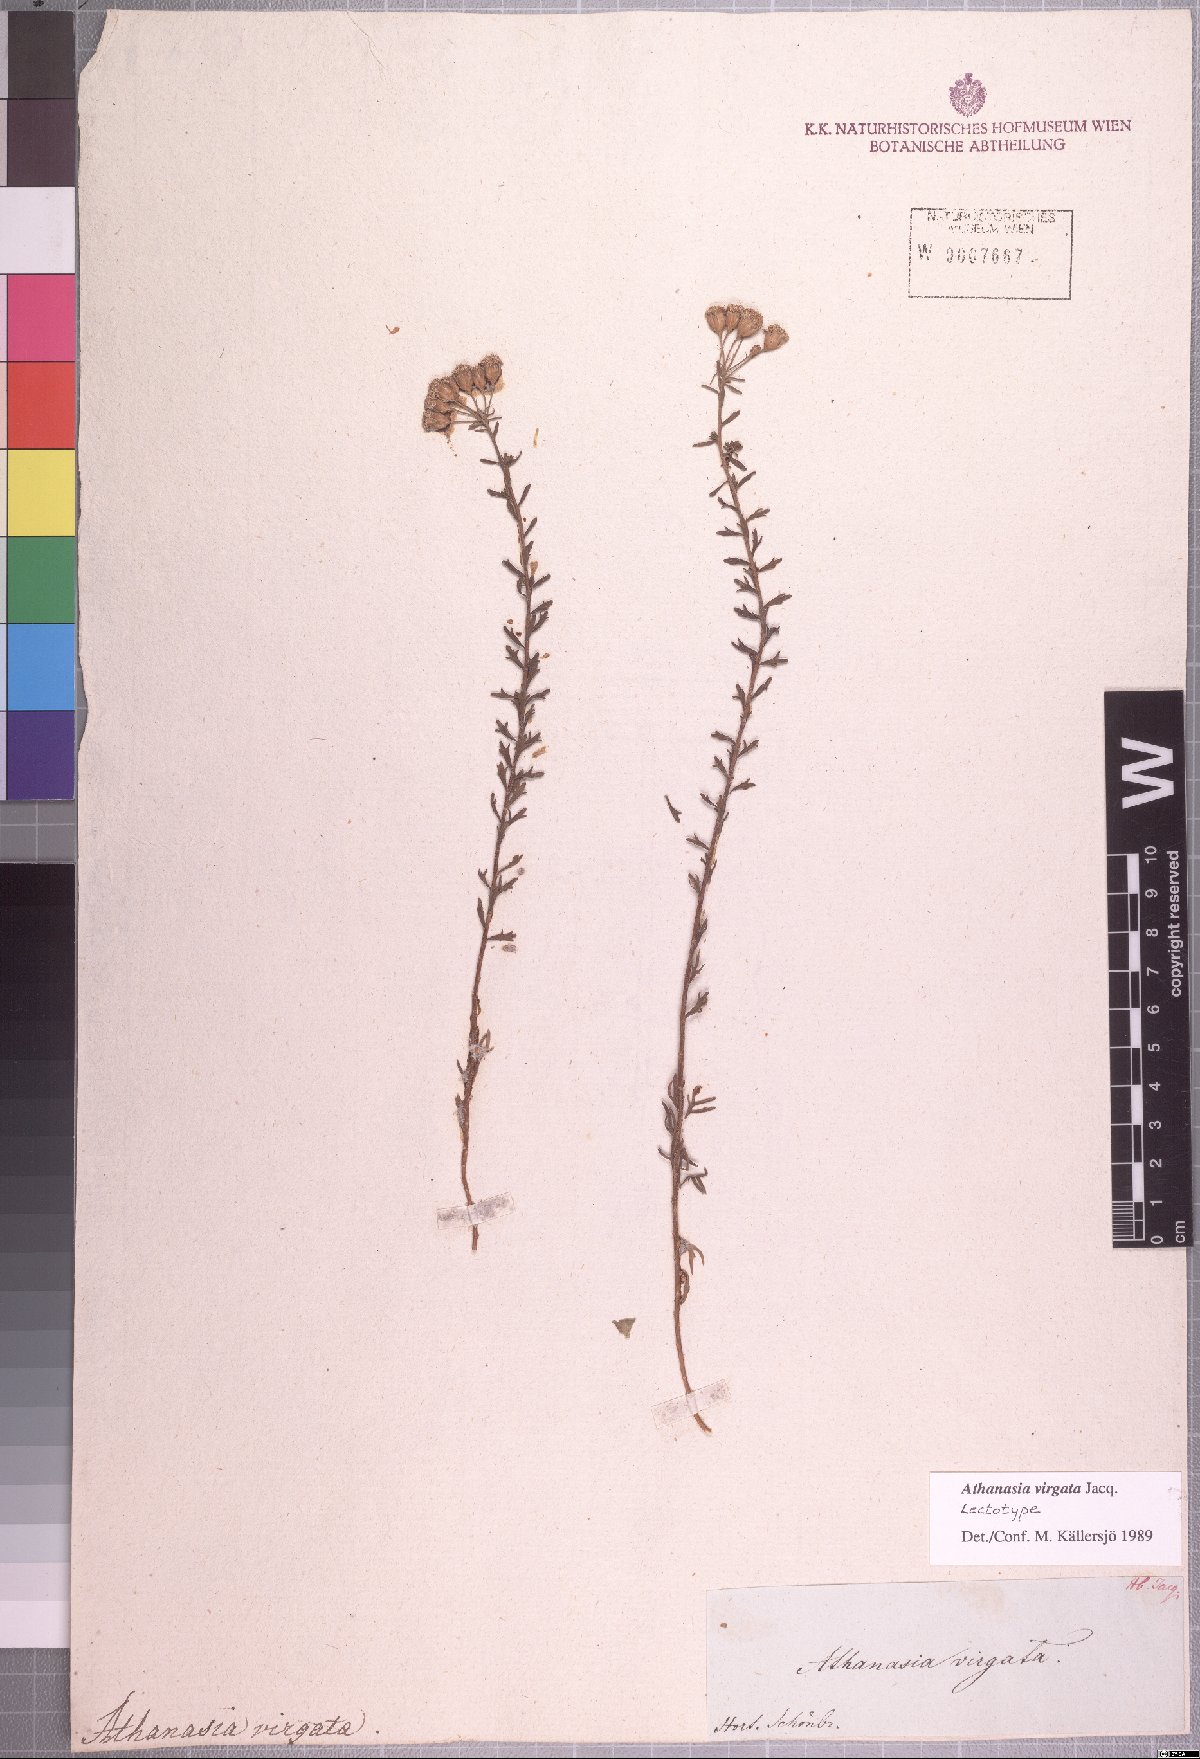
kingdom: Plantae
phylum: Tracheophyta
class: Magnoliopsida
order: Asterales
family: Asteraceae
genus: Athanasia
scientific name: Athanasia virgata
